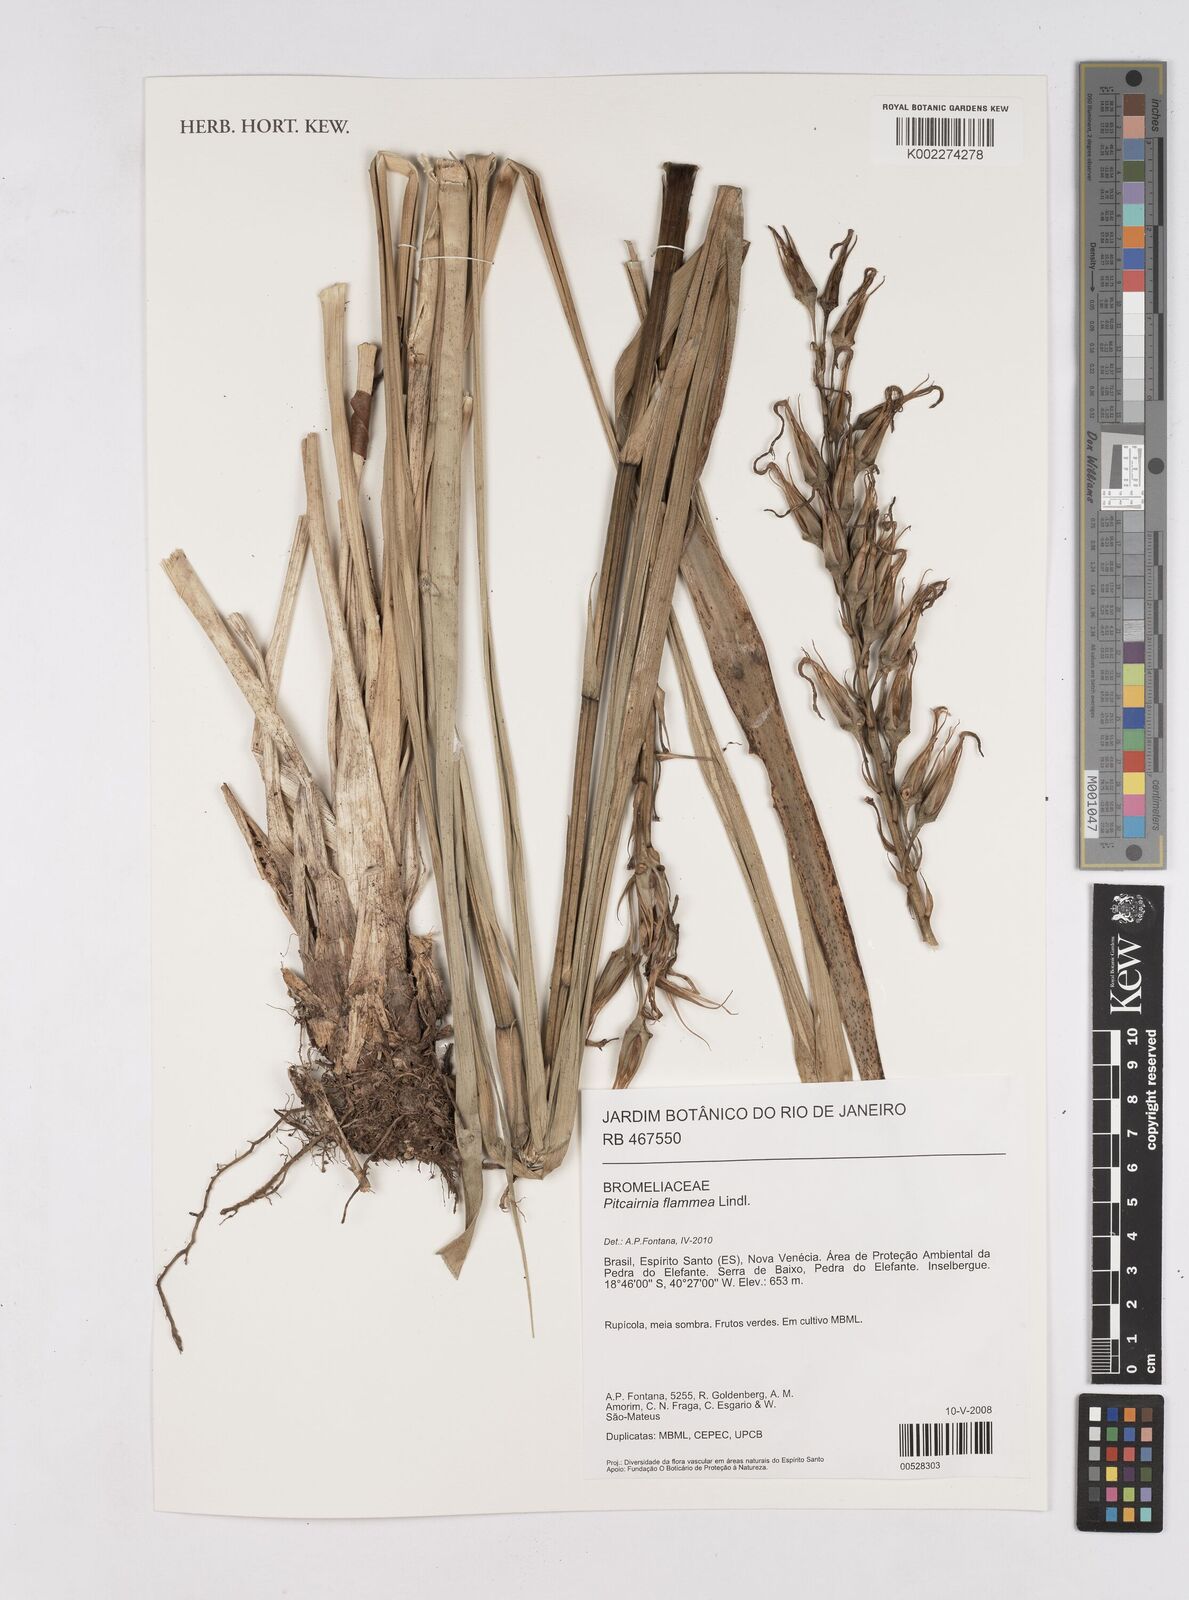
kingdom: Plantae
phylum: Tracheophyta
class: Liliopsida
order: Poales
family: Bromeliaceae
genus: Pitcairnia
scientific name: Pitcairnia flammea
